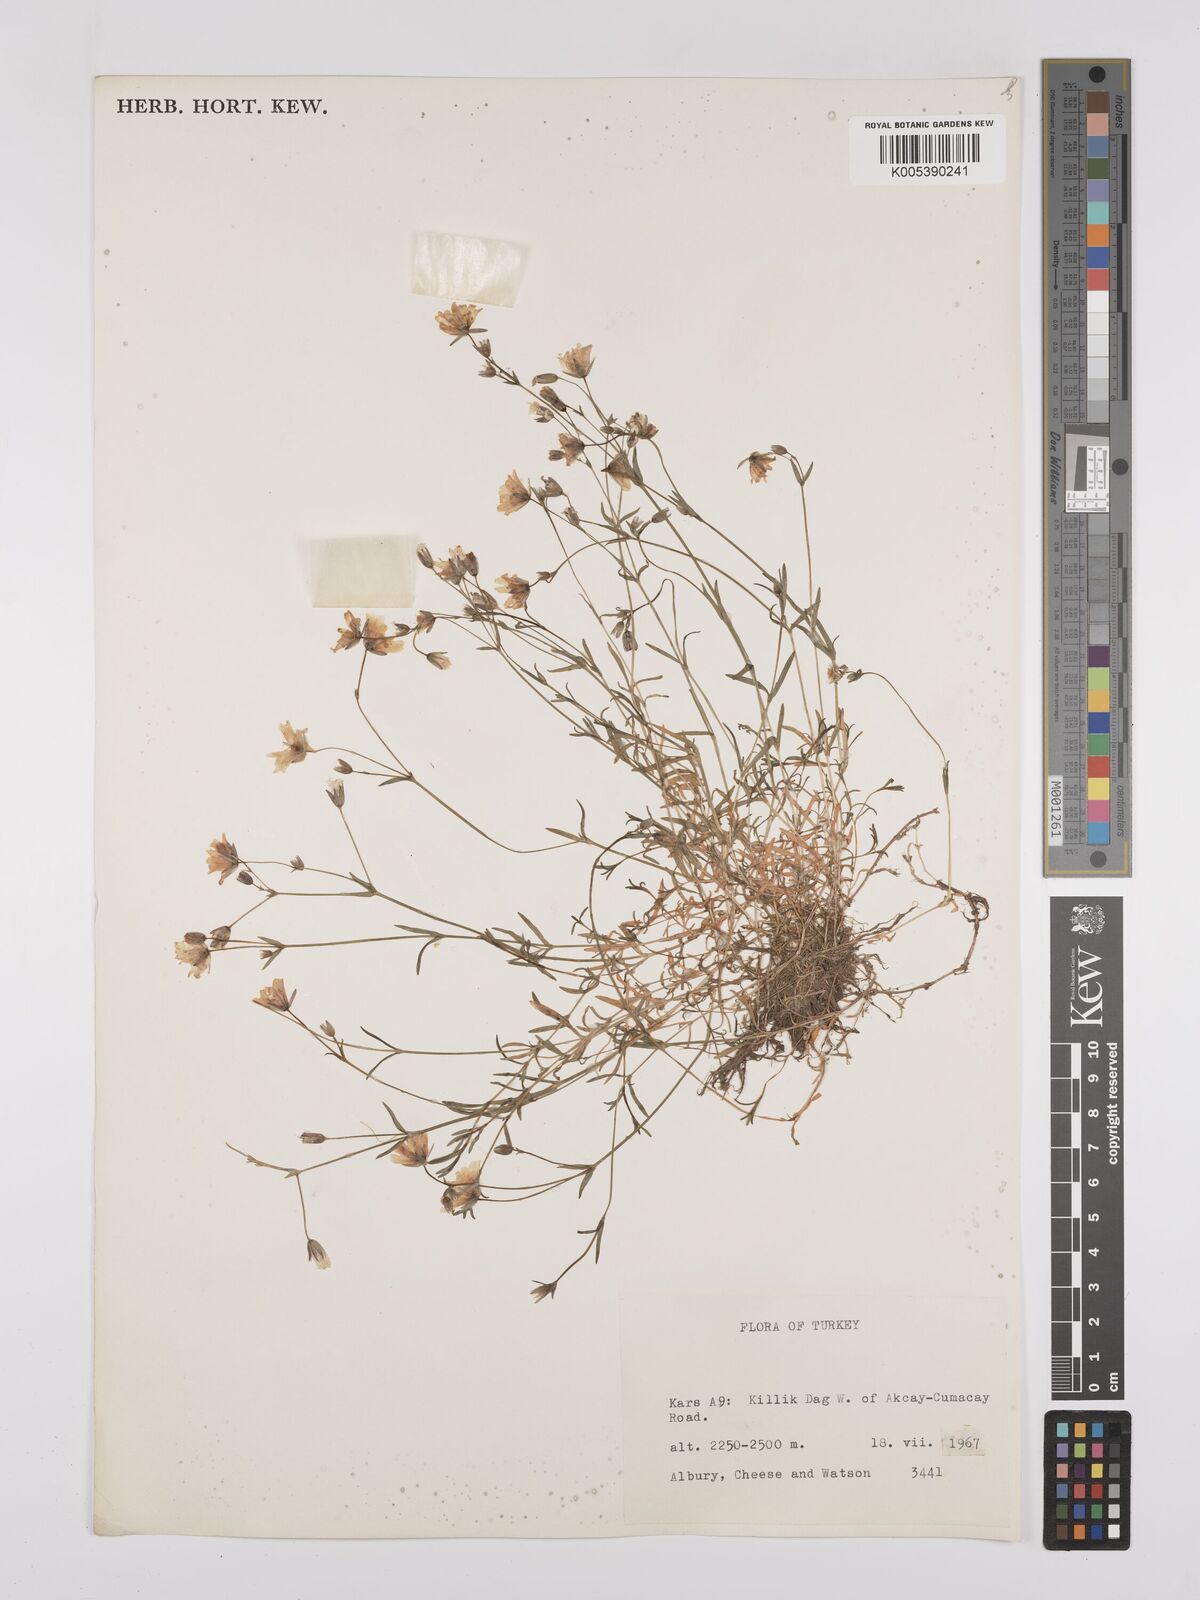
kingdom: Plantae
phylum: Tracheophyta
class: Magnoliopsida
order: Caryophyllales
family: Caryophyllaceae
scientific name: Caryophyllaceae
